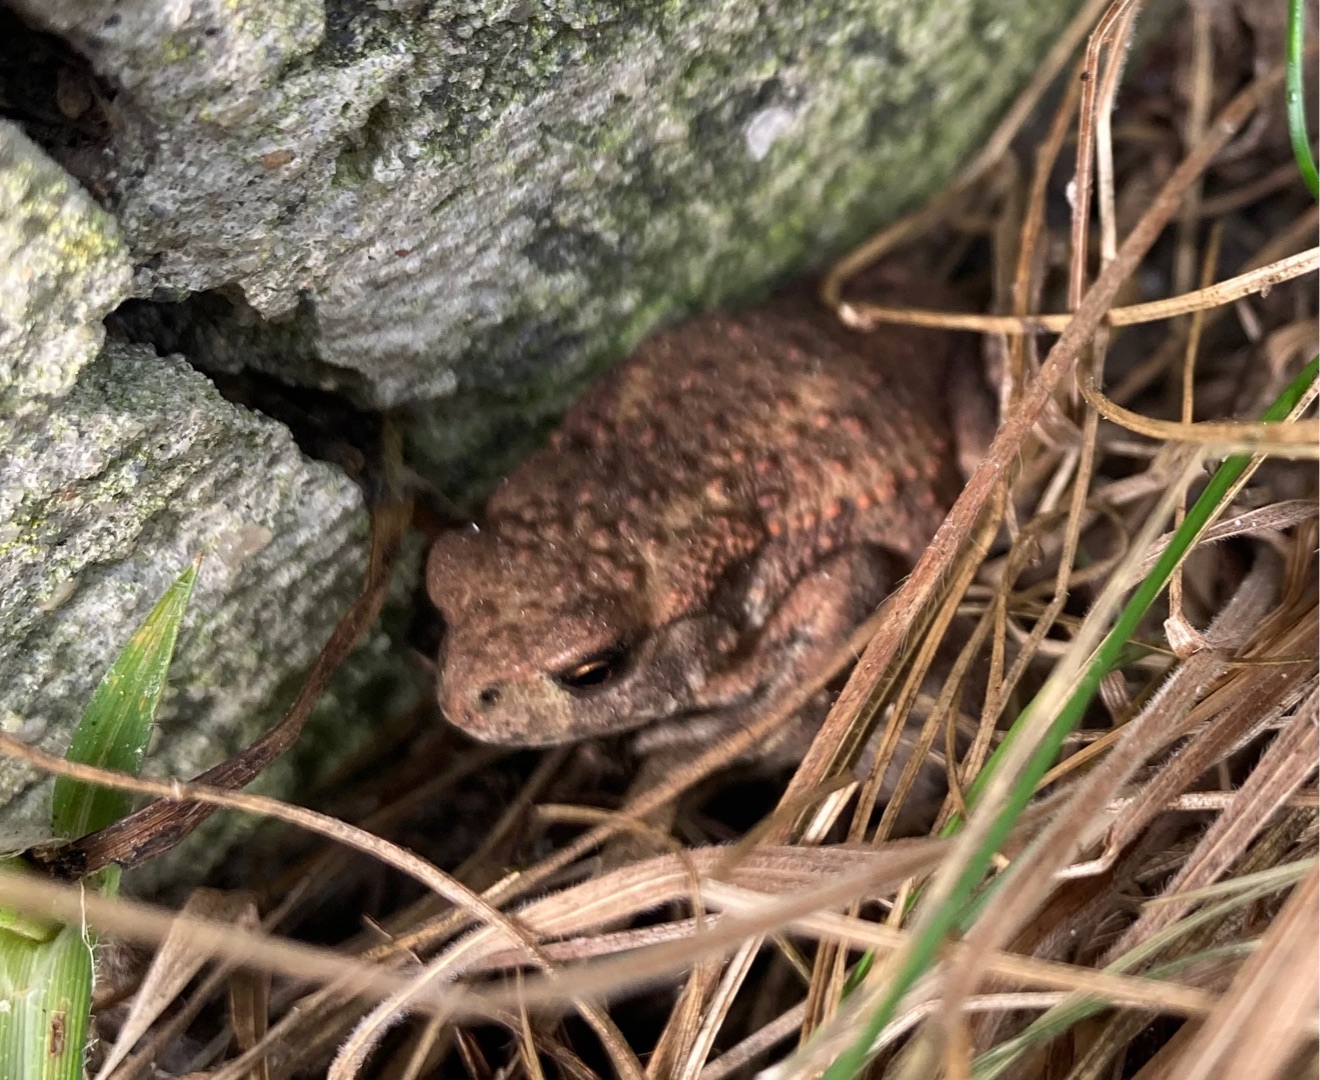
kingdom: Animalia
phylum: Chordata
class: Amphibia
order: Anura
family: Bufonidae
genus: Bufo
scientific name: Bufo bufo
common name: Skrubtudse
